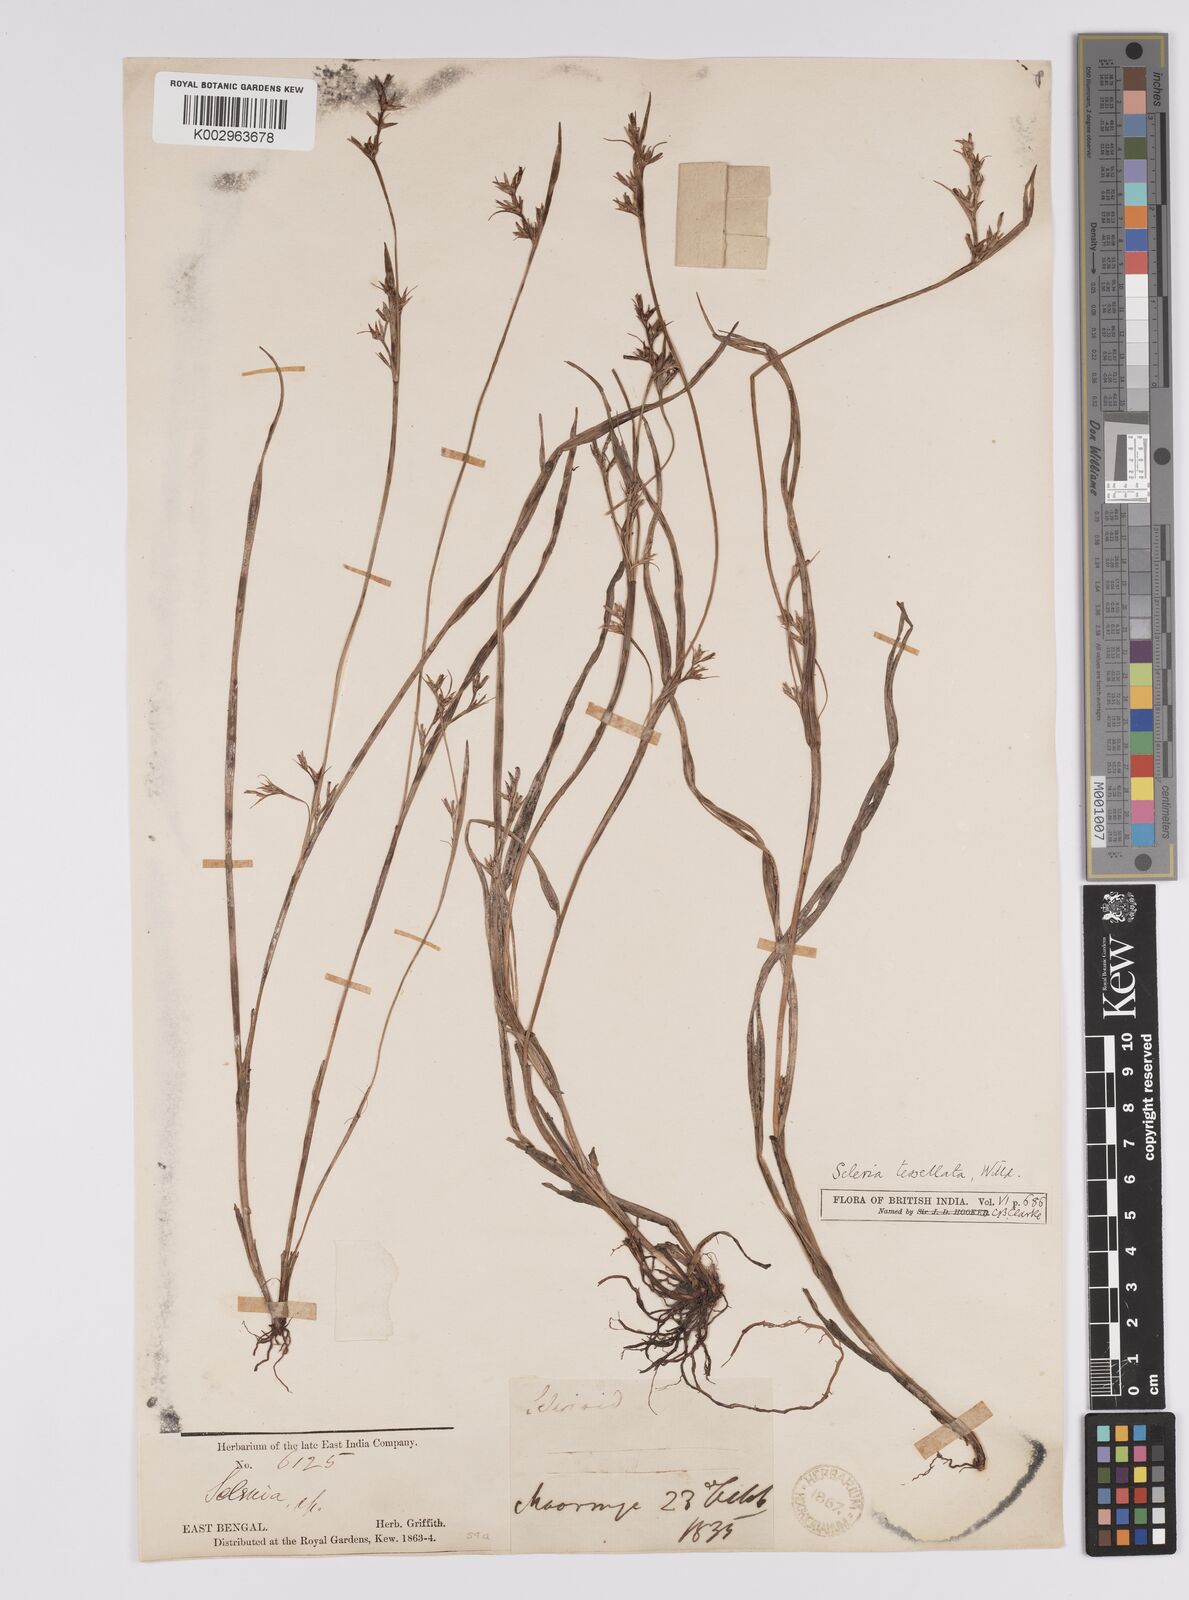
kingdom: Plantae
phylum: Tracheophyta
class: Liliopsida
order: Poales
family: Cyperaceae
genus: Scleria
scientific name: Scleria parvula
